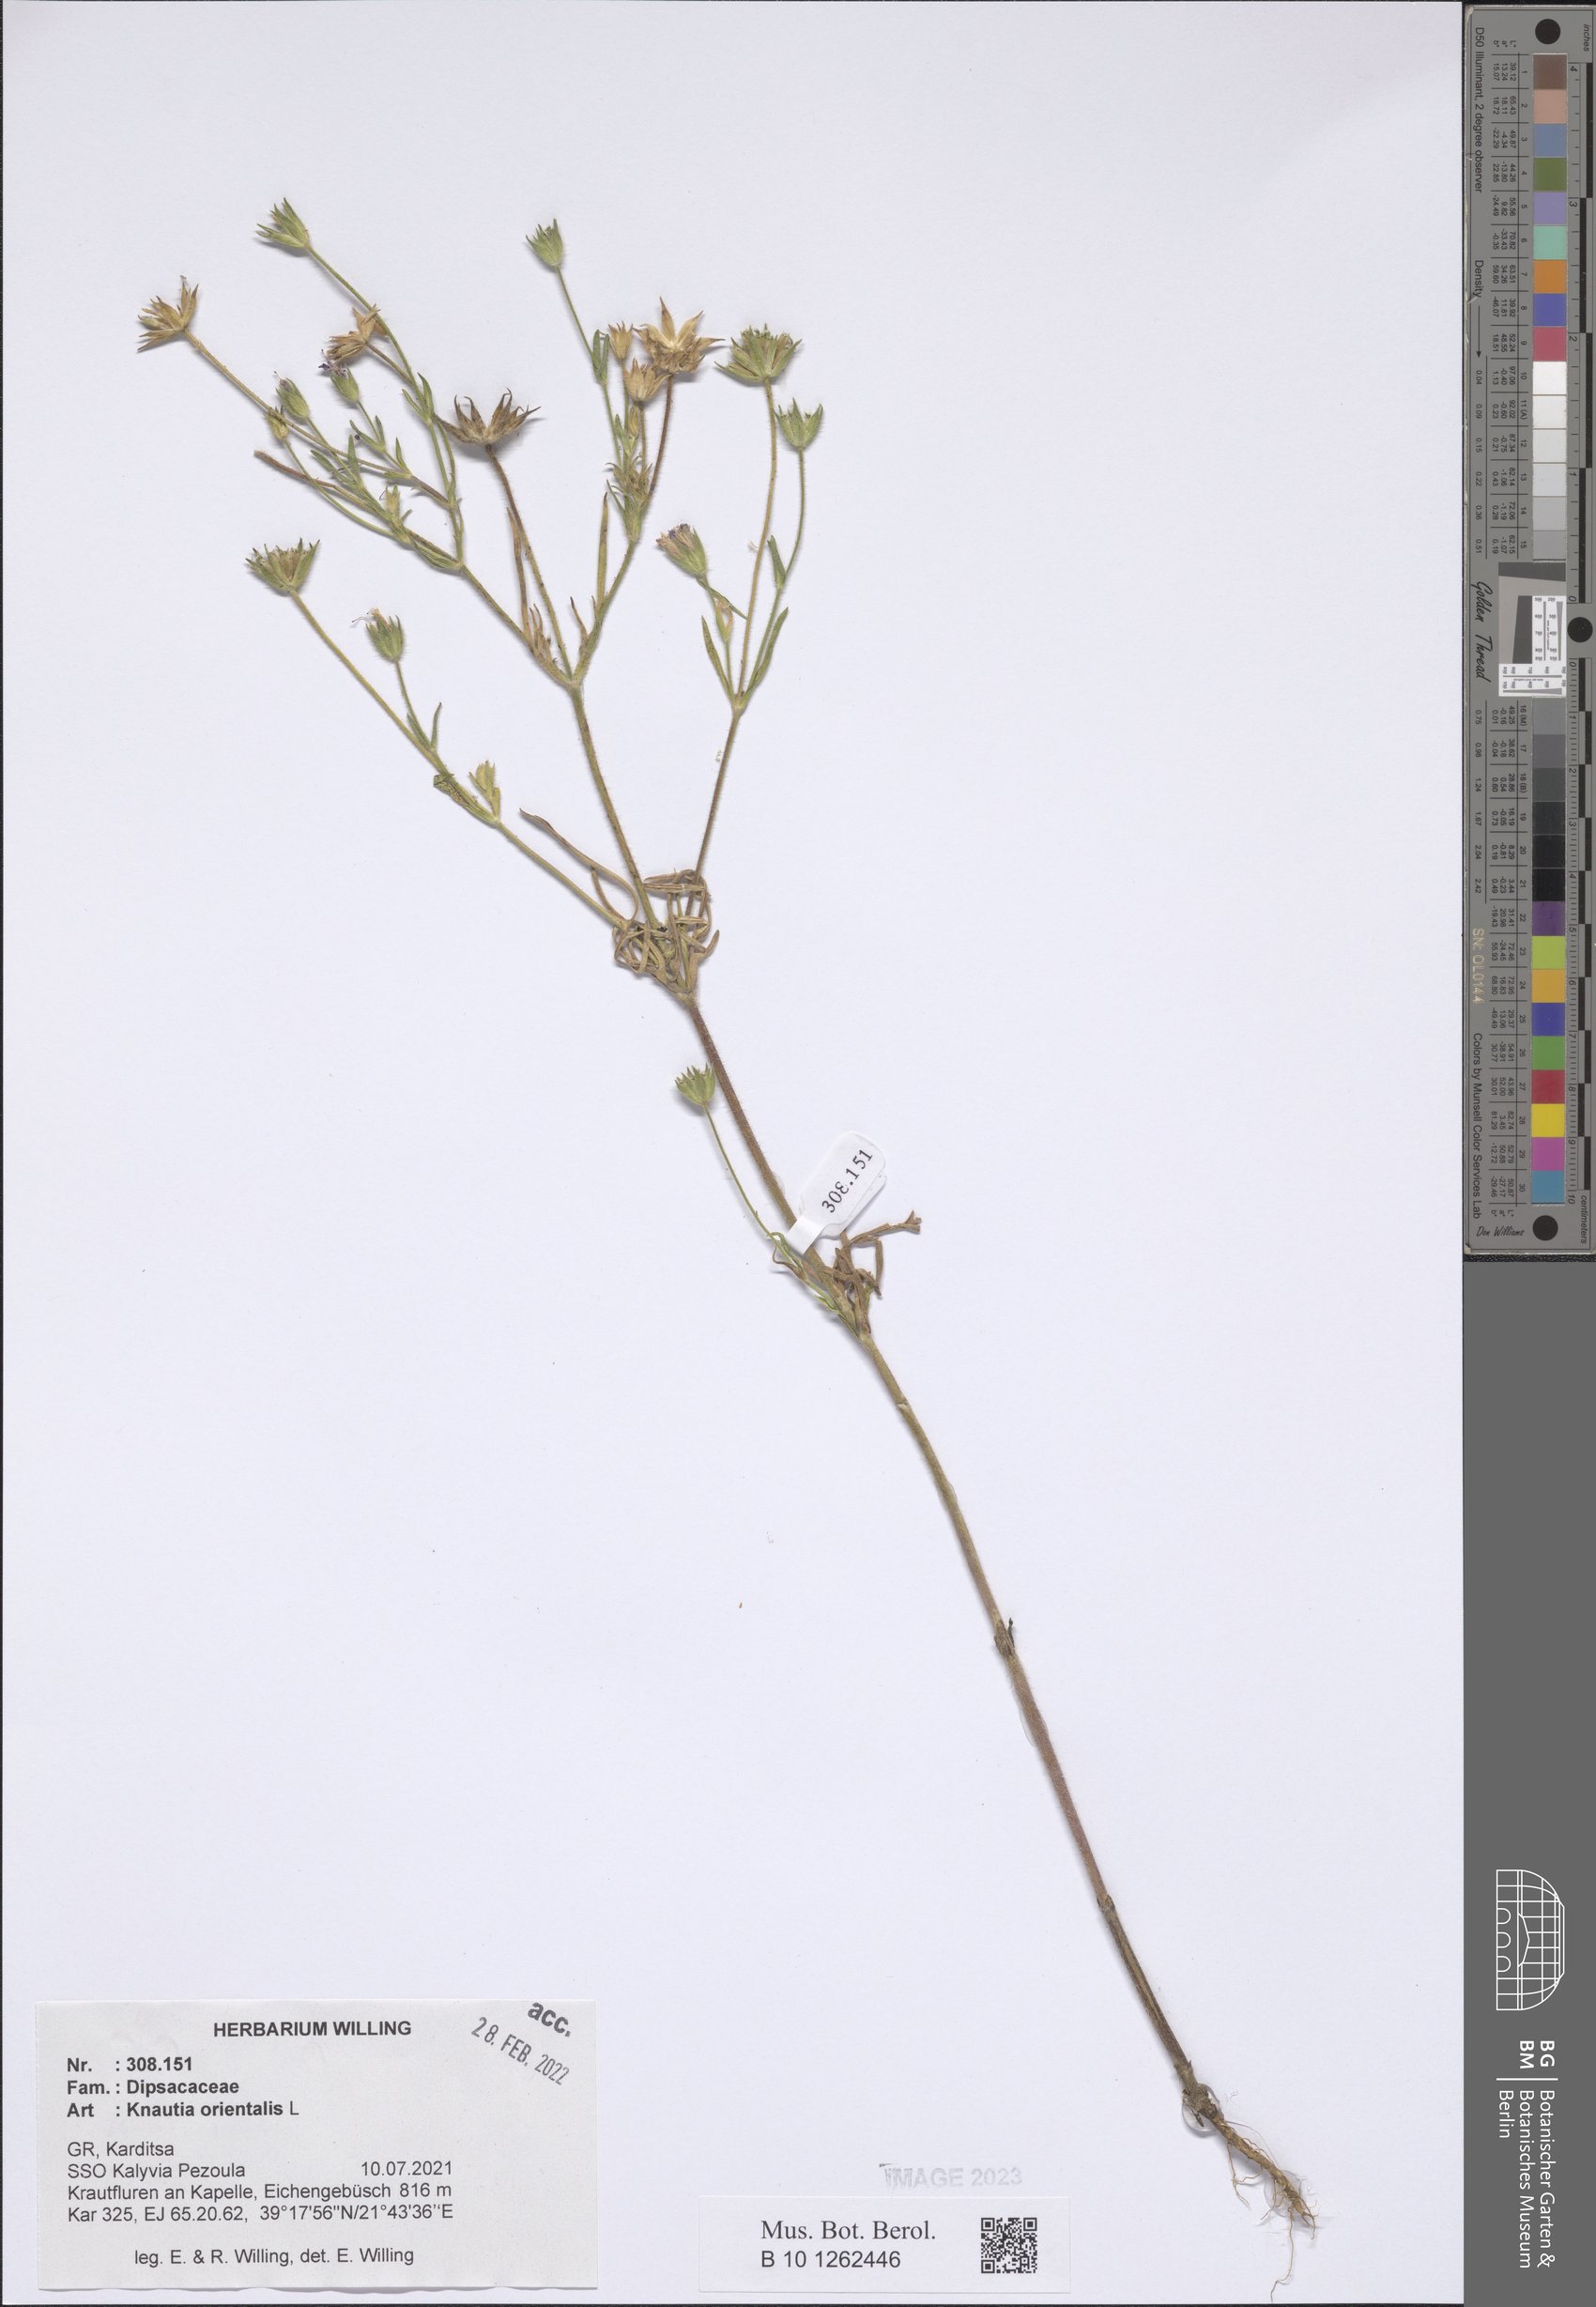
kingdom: Plantae
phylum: Tracheophyta
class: Magnoliopsida
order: Dipsacales
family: Caprifoliaceae
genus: Knautia
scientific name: Knautia orientalis
